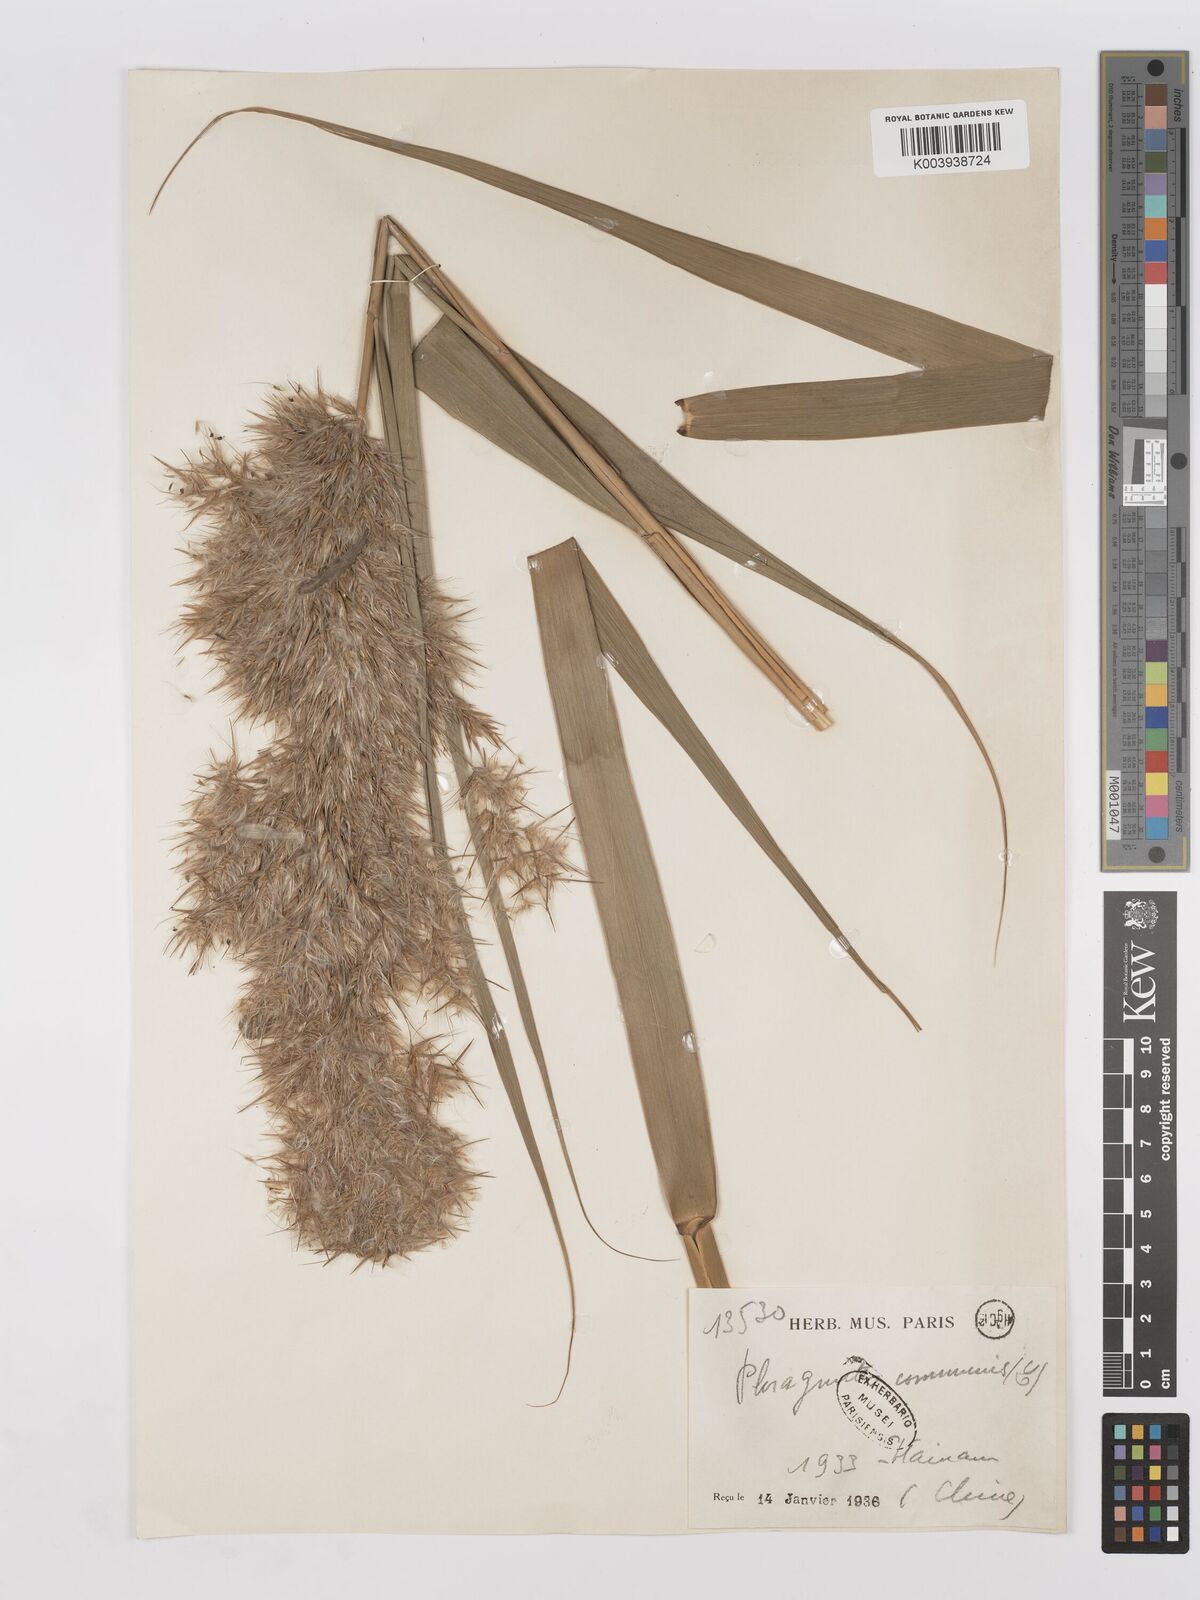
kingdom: Plantae
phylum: Tracheophyta
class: Liliopsida
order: Poales
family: Poaceae
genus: Phragmites
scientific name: Phragmites australis
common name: Common reed
